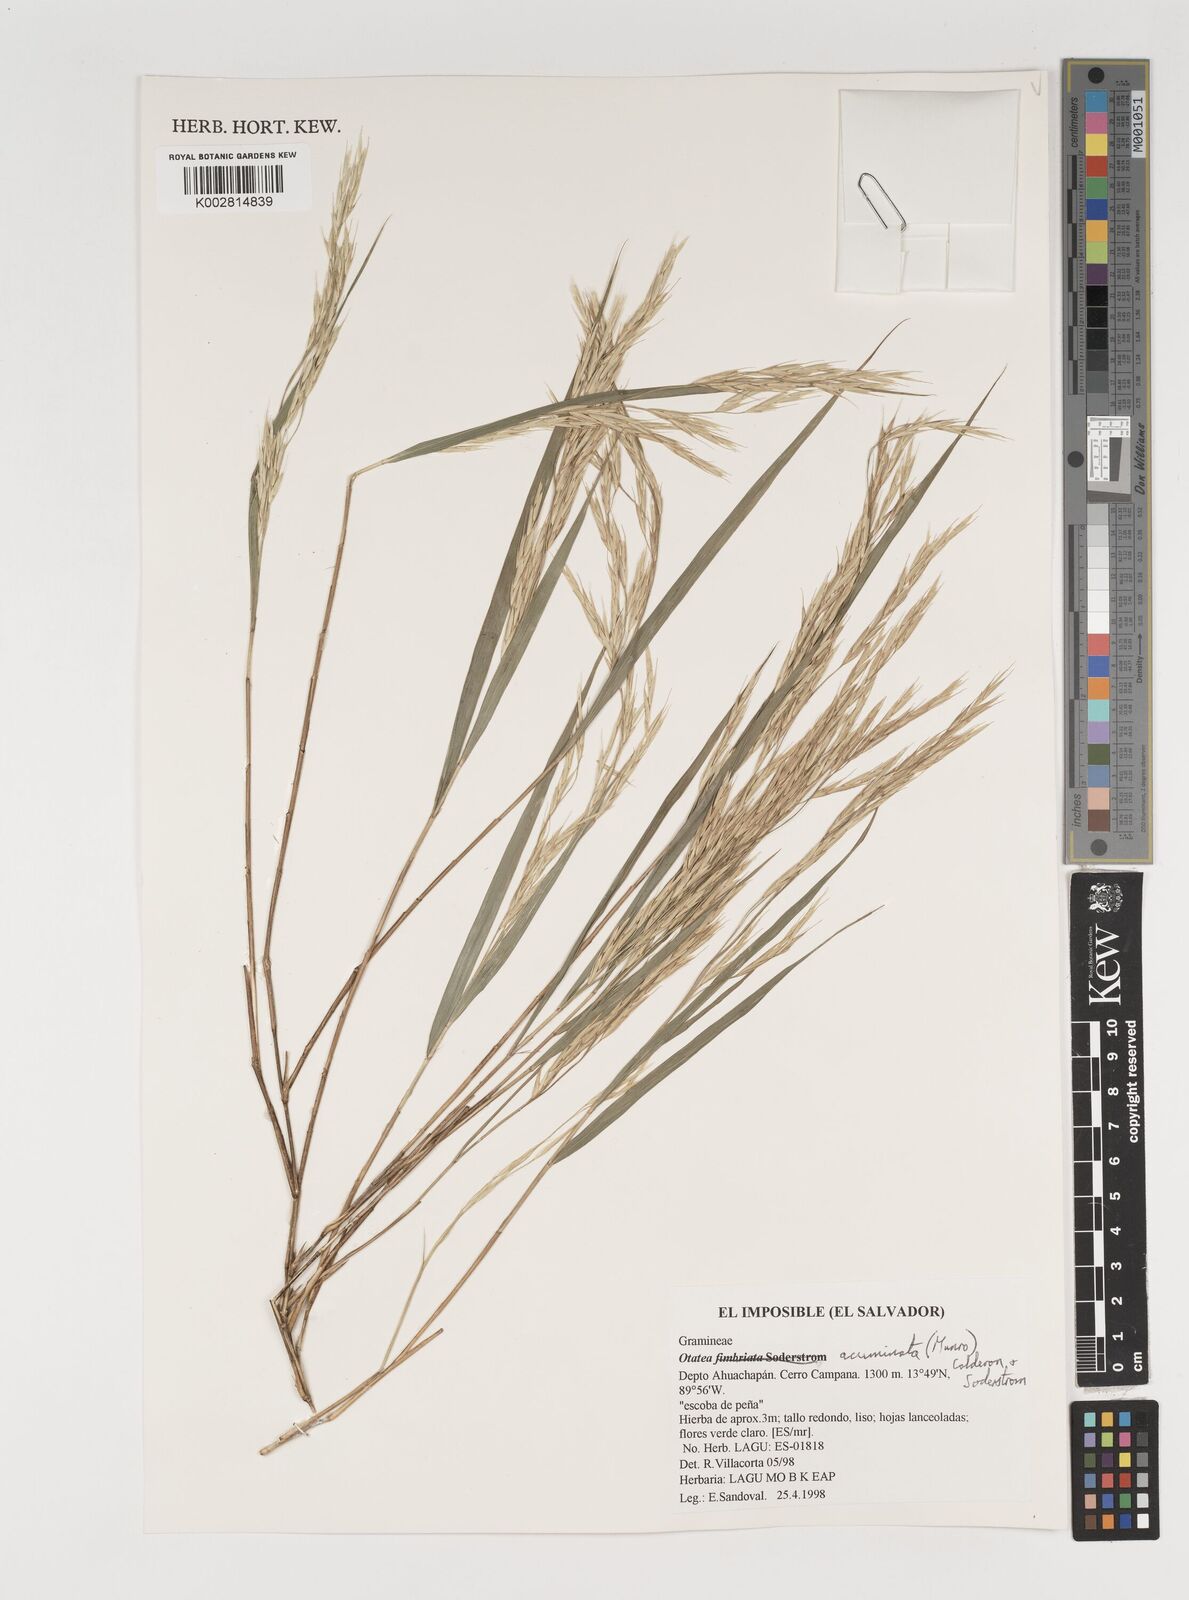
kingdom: Plantae
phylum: Tracheophyta
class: Liliopsida
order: Poales
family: Poaceae
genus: Olmeca
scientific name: Olmeca
